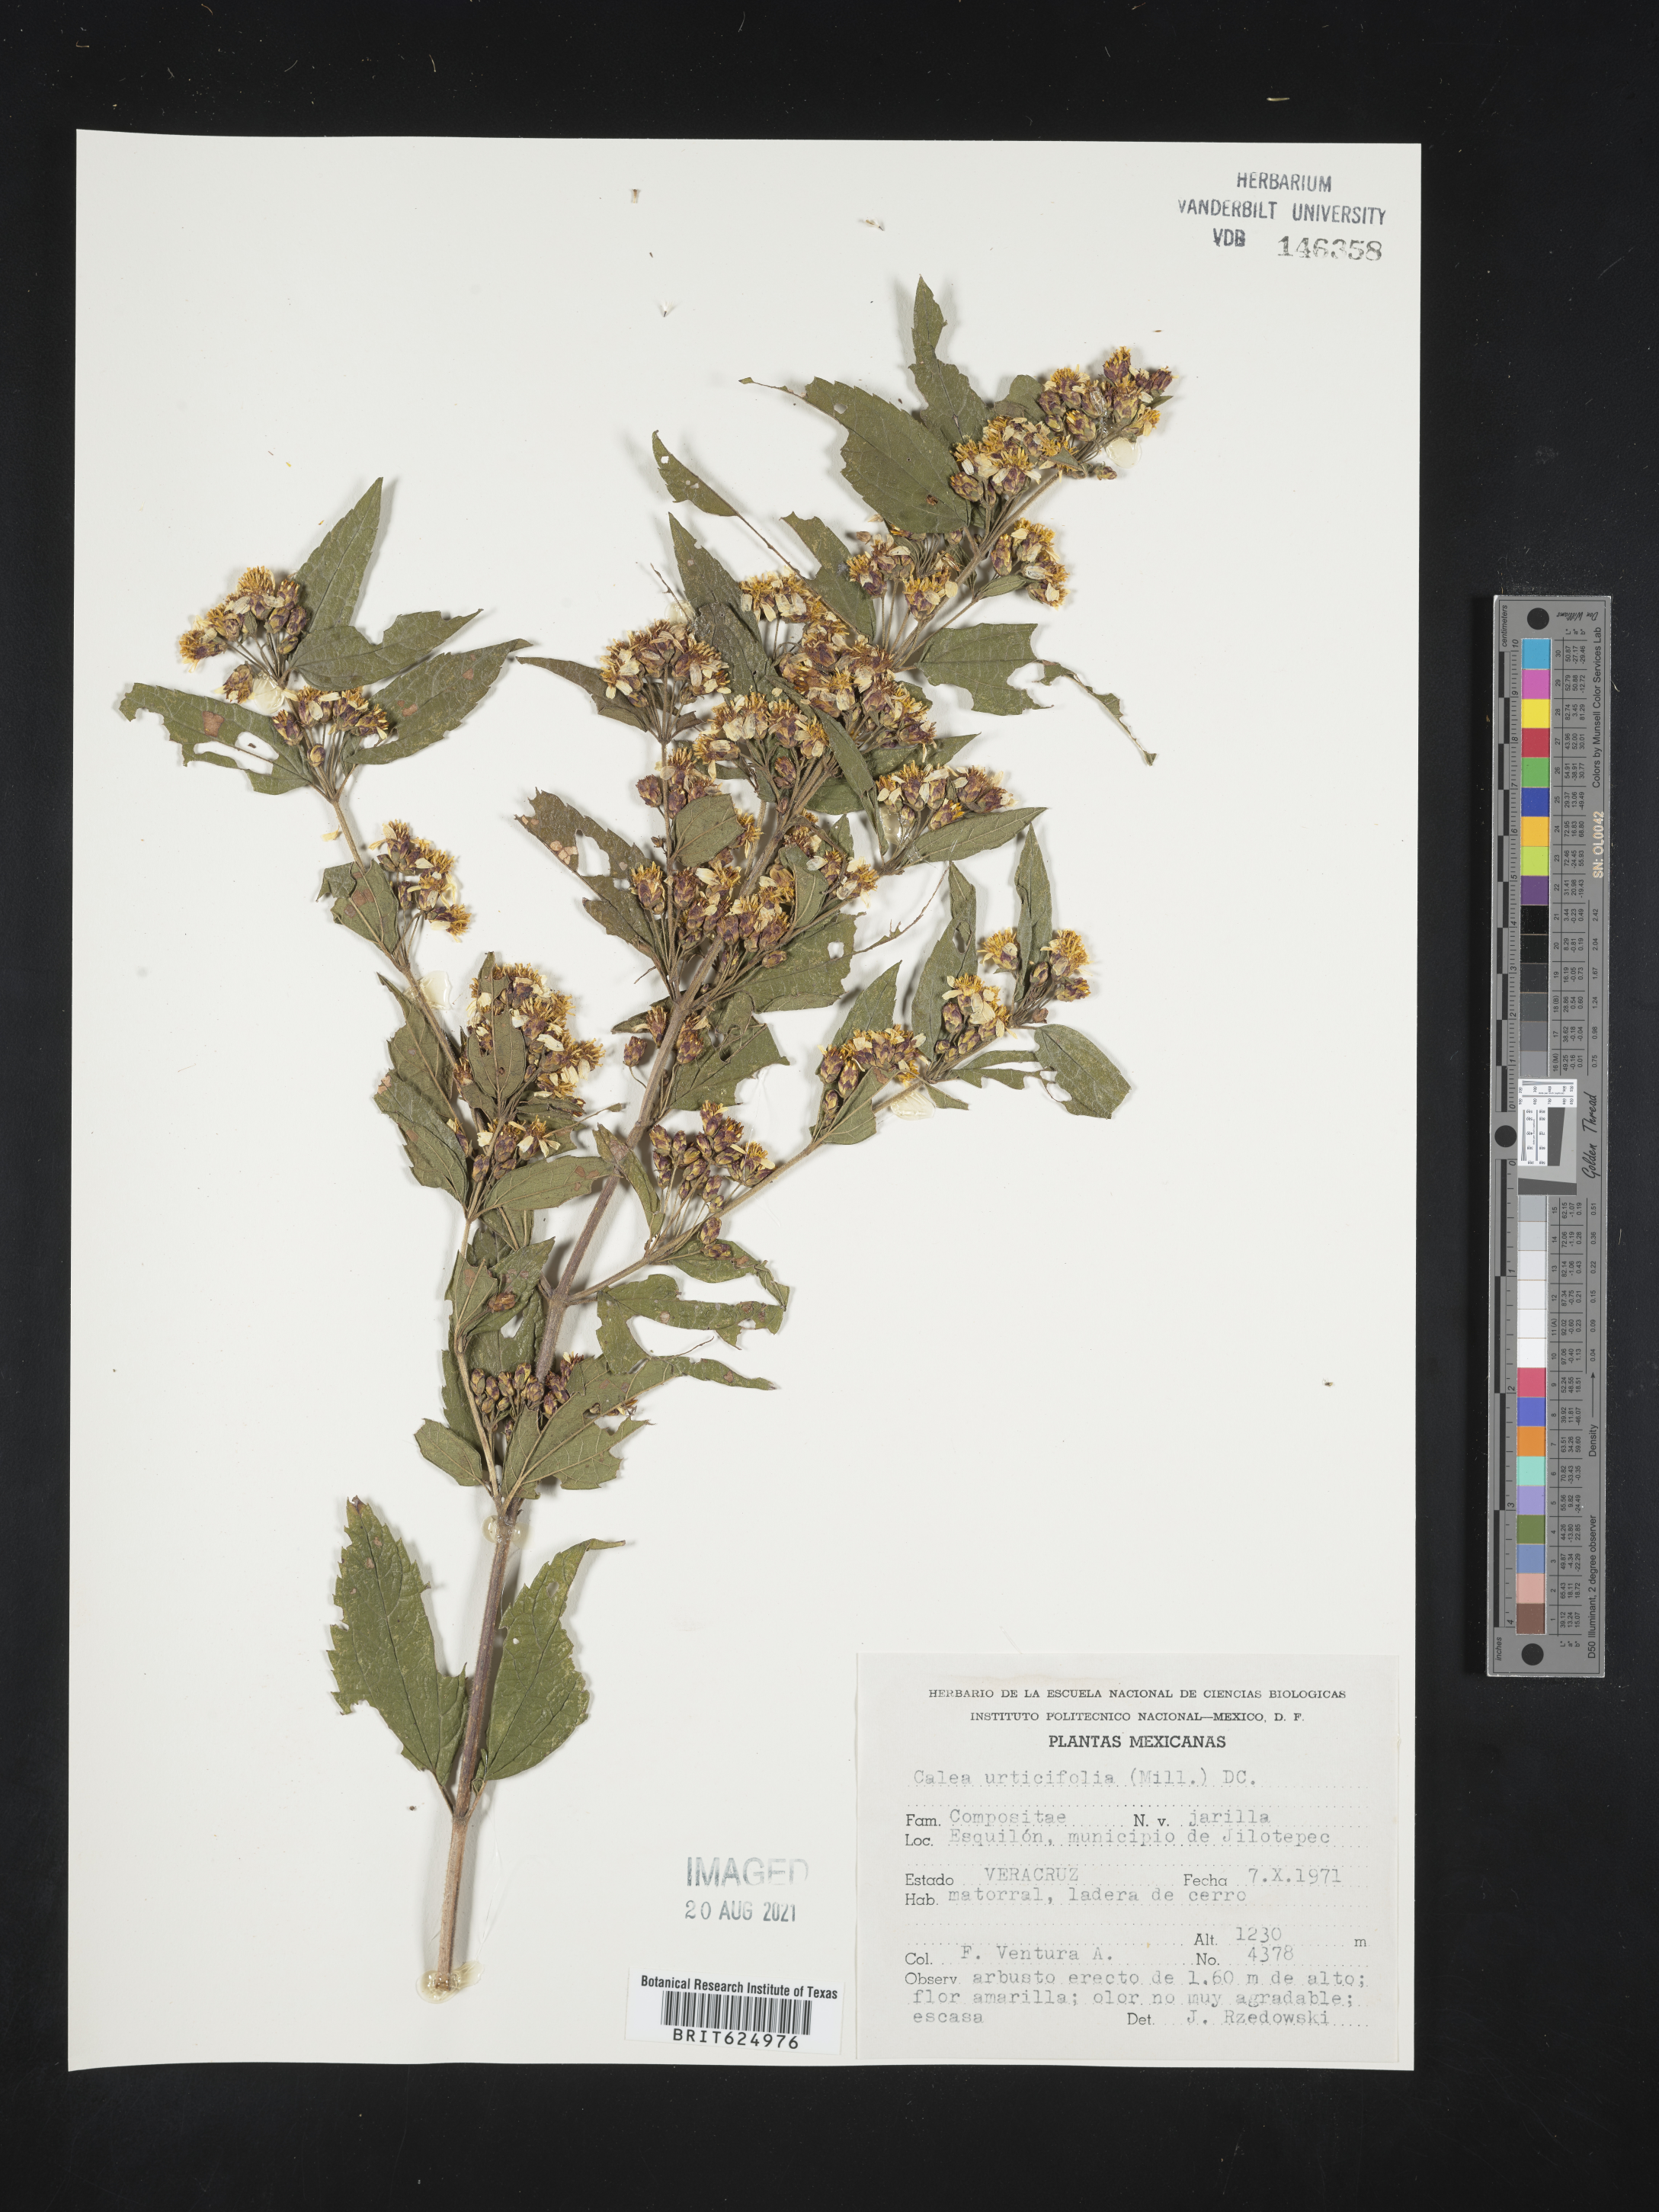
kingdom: Plantae
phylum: Tracheophyta
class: Magnoliopsida
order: Asterales
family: Asteraceae
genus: Calea
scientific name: Calea
